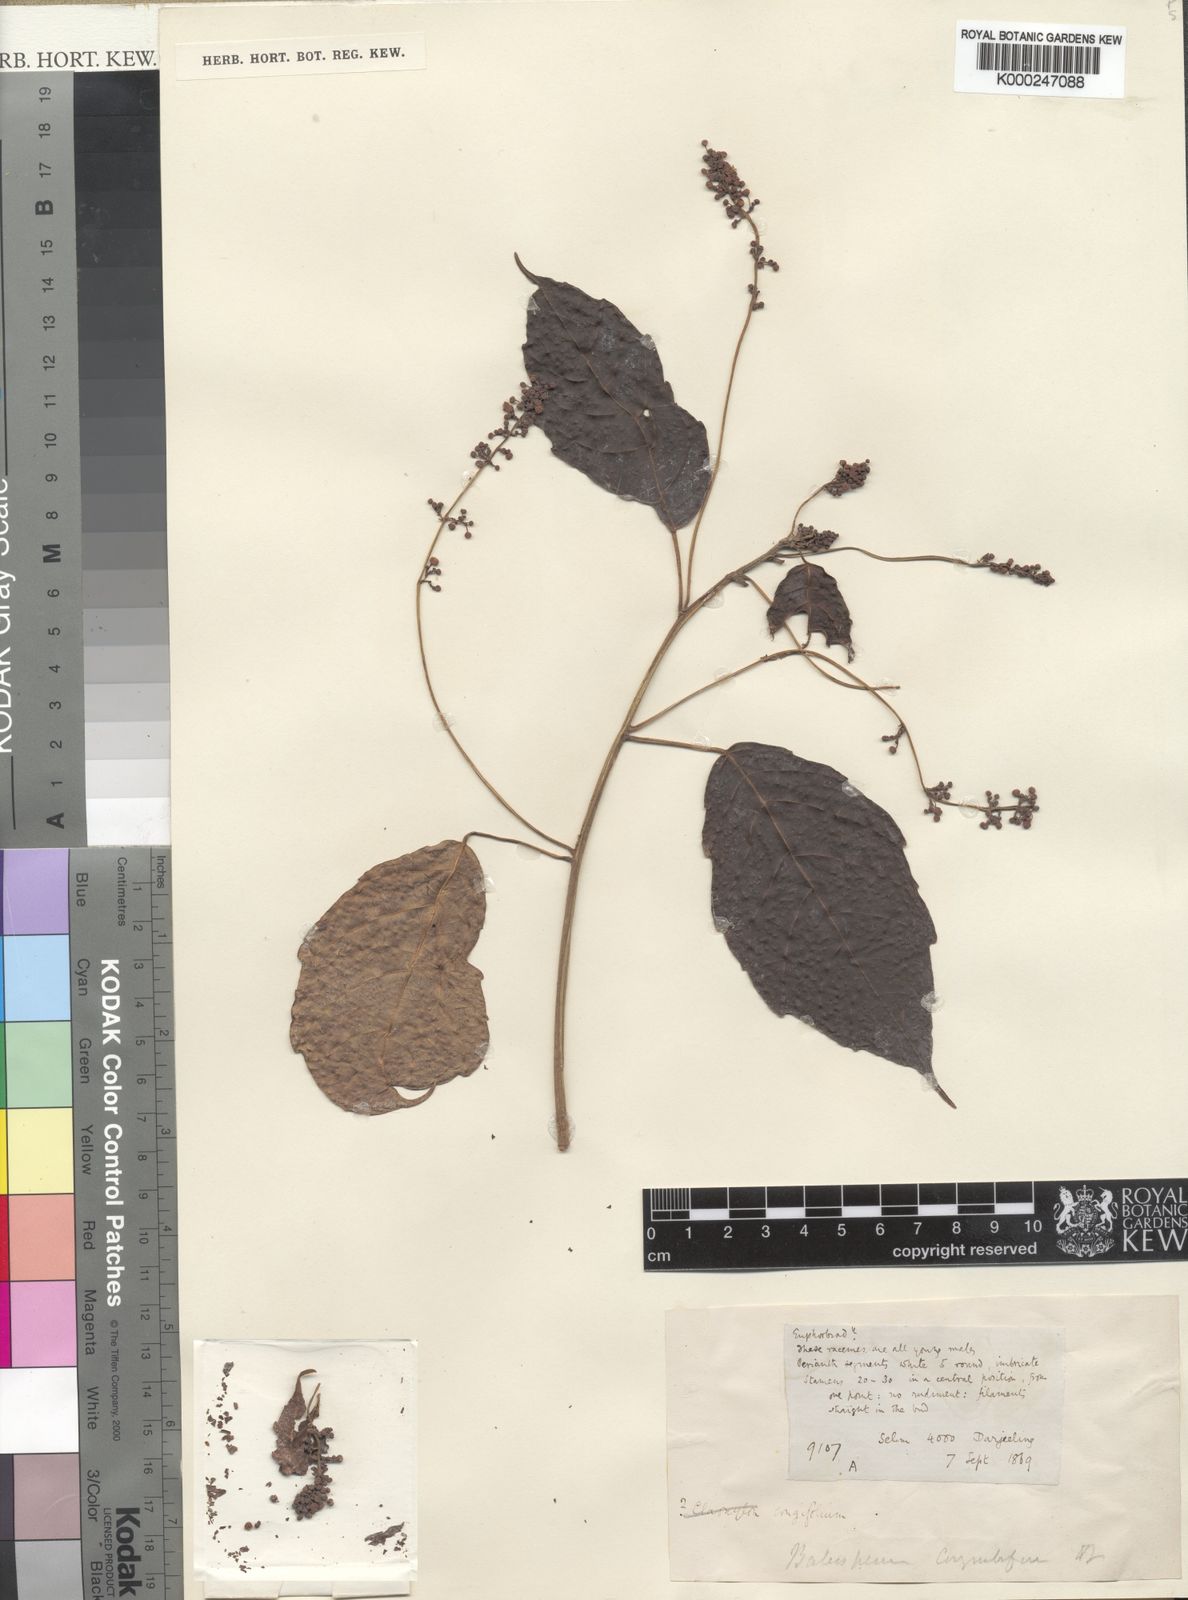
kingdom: Plantae
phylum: Tracheophyta
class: Magnoliopsida
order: Malpighiales
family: Euphorbiaceae
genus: Baliospermum
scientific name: Baliospermum
